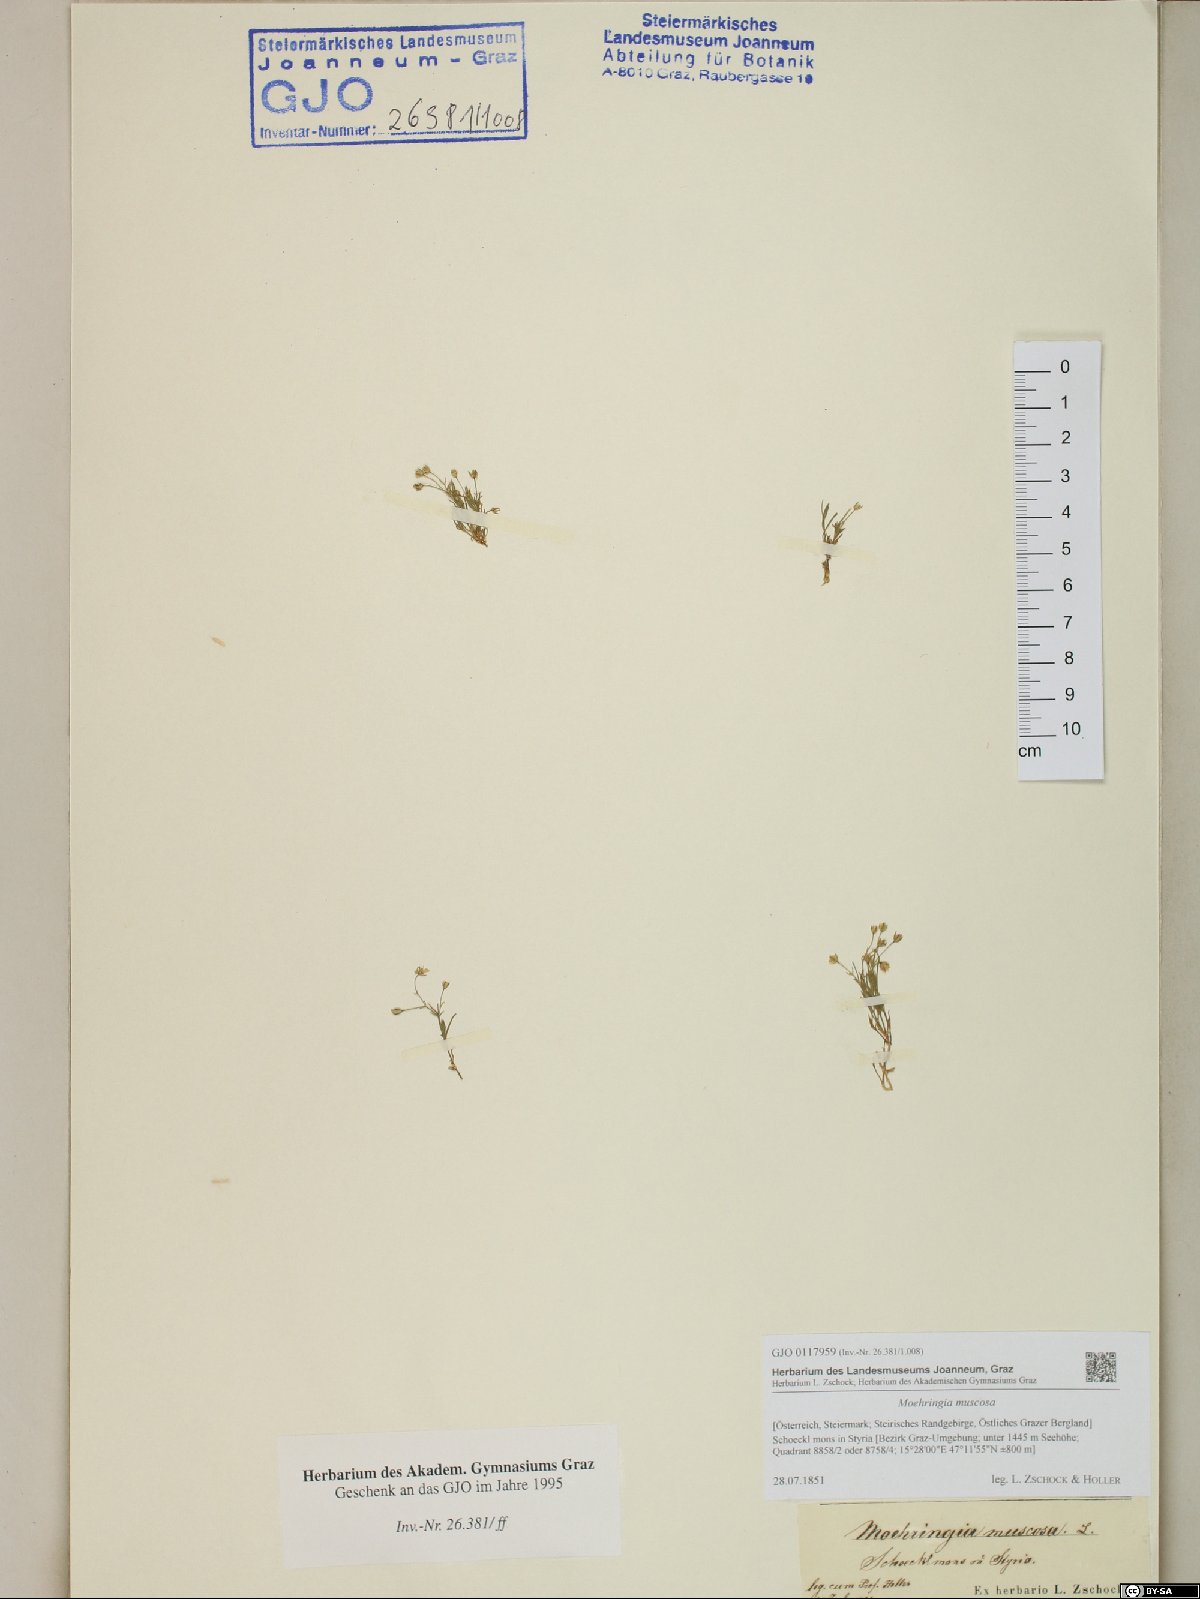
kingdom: Plantae
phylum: Tracheophyta
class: Magnoliopsida
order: Caryophyllales
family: Caryophyllaceae
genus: Moehringia
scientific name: Moehringia muscosa
